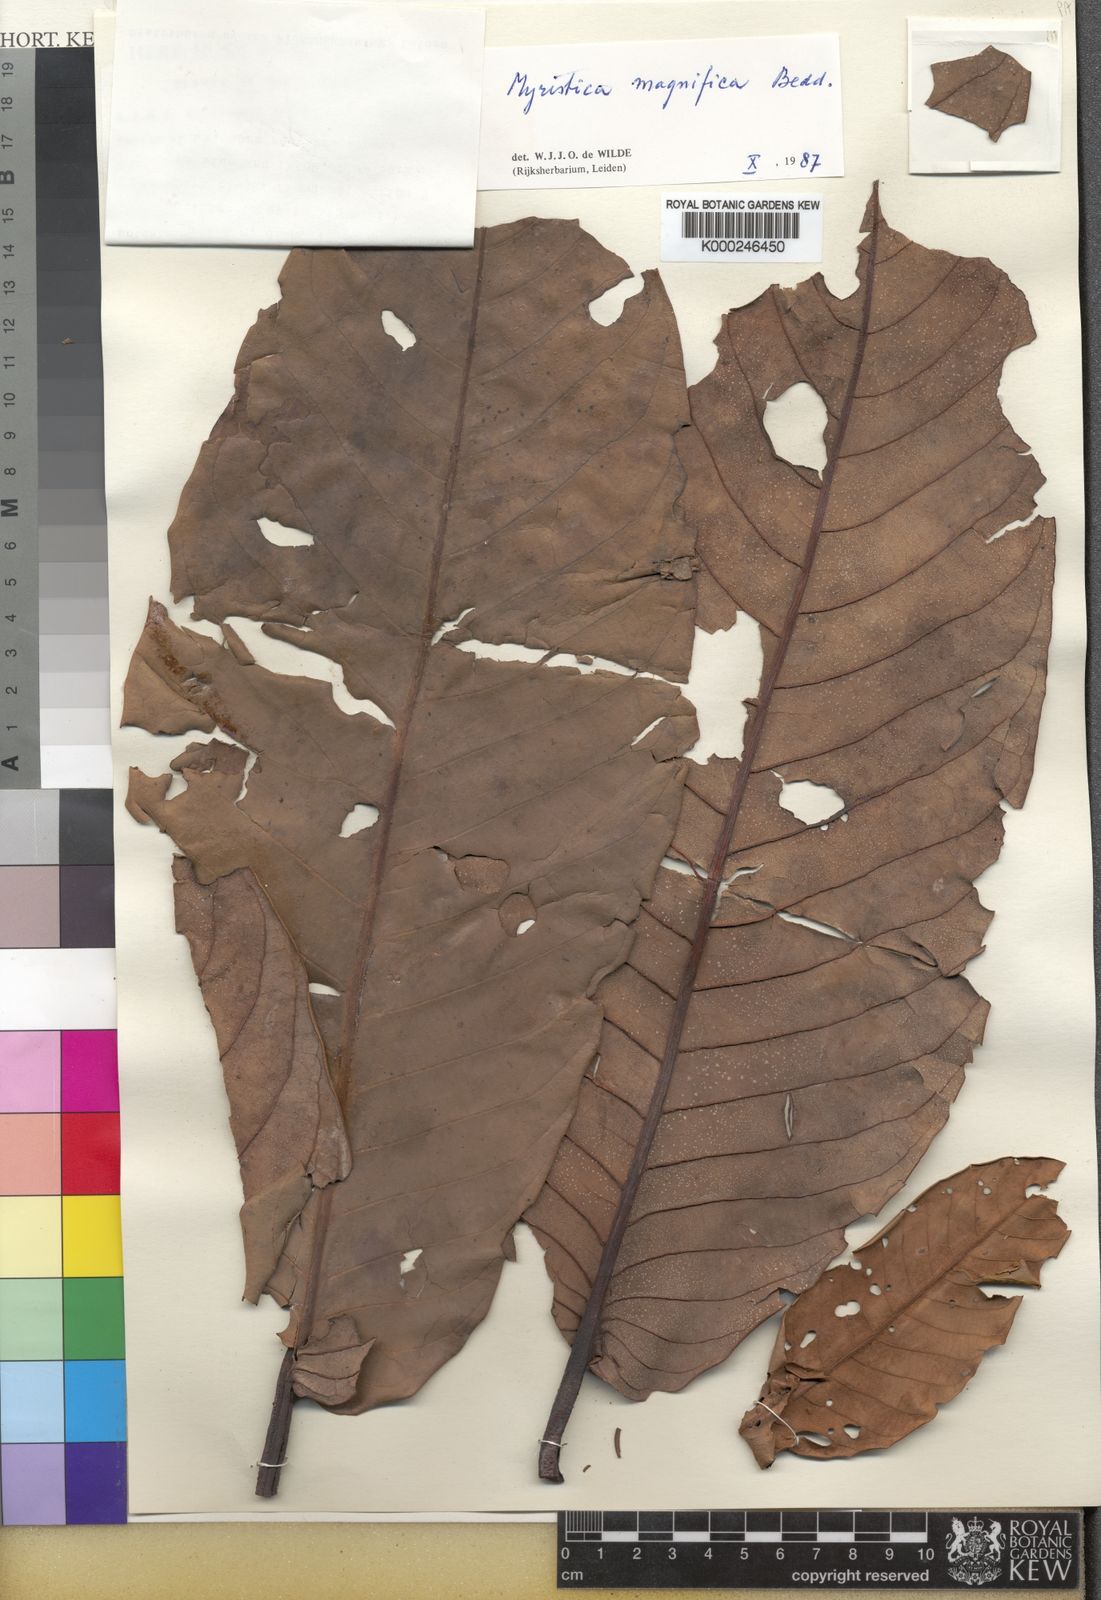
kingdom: Plantae
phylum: Tracheophyta
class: Magnoliopsida
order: Magnoliales
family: Myristicaceae
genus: Myristica
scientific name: Myristica magnifica
